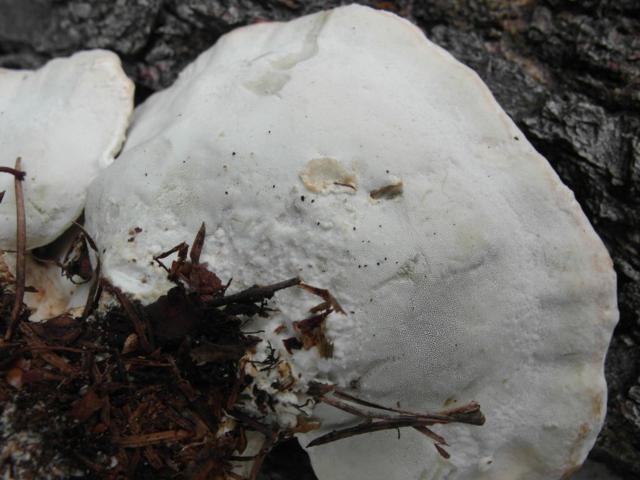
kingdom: Fungi
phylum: Basidiomycota
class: Agaricomycetes
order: Polyporales
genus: Calcipostia
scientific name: Calcipostia guttulata
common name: dråbe-kødporesvamp
